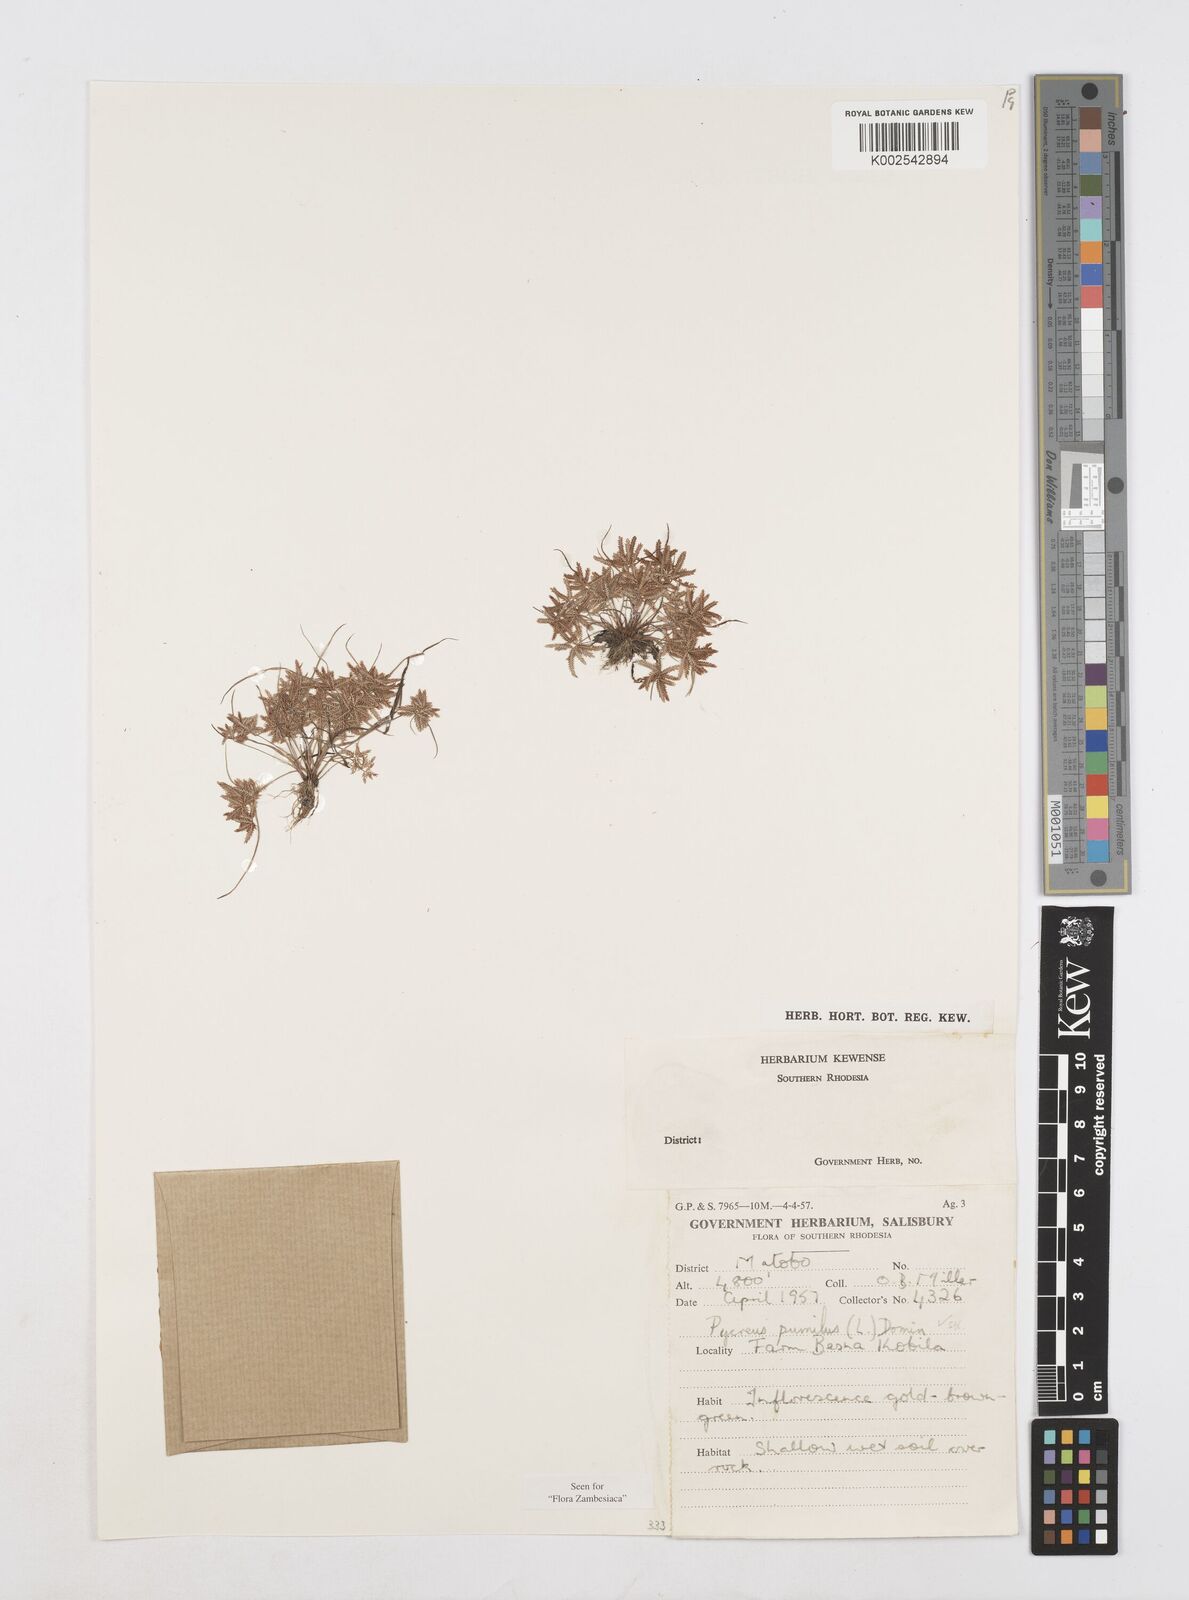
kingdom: Plantae
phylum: Tracheophyta
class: Liliopsida
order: Poales
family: Cyperaceae
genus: Cyperus
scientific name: Cyperus pumilus
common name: Low flatsedge
